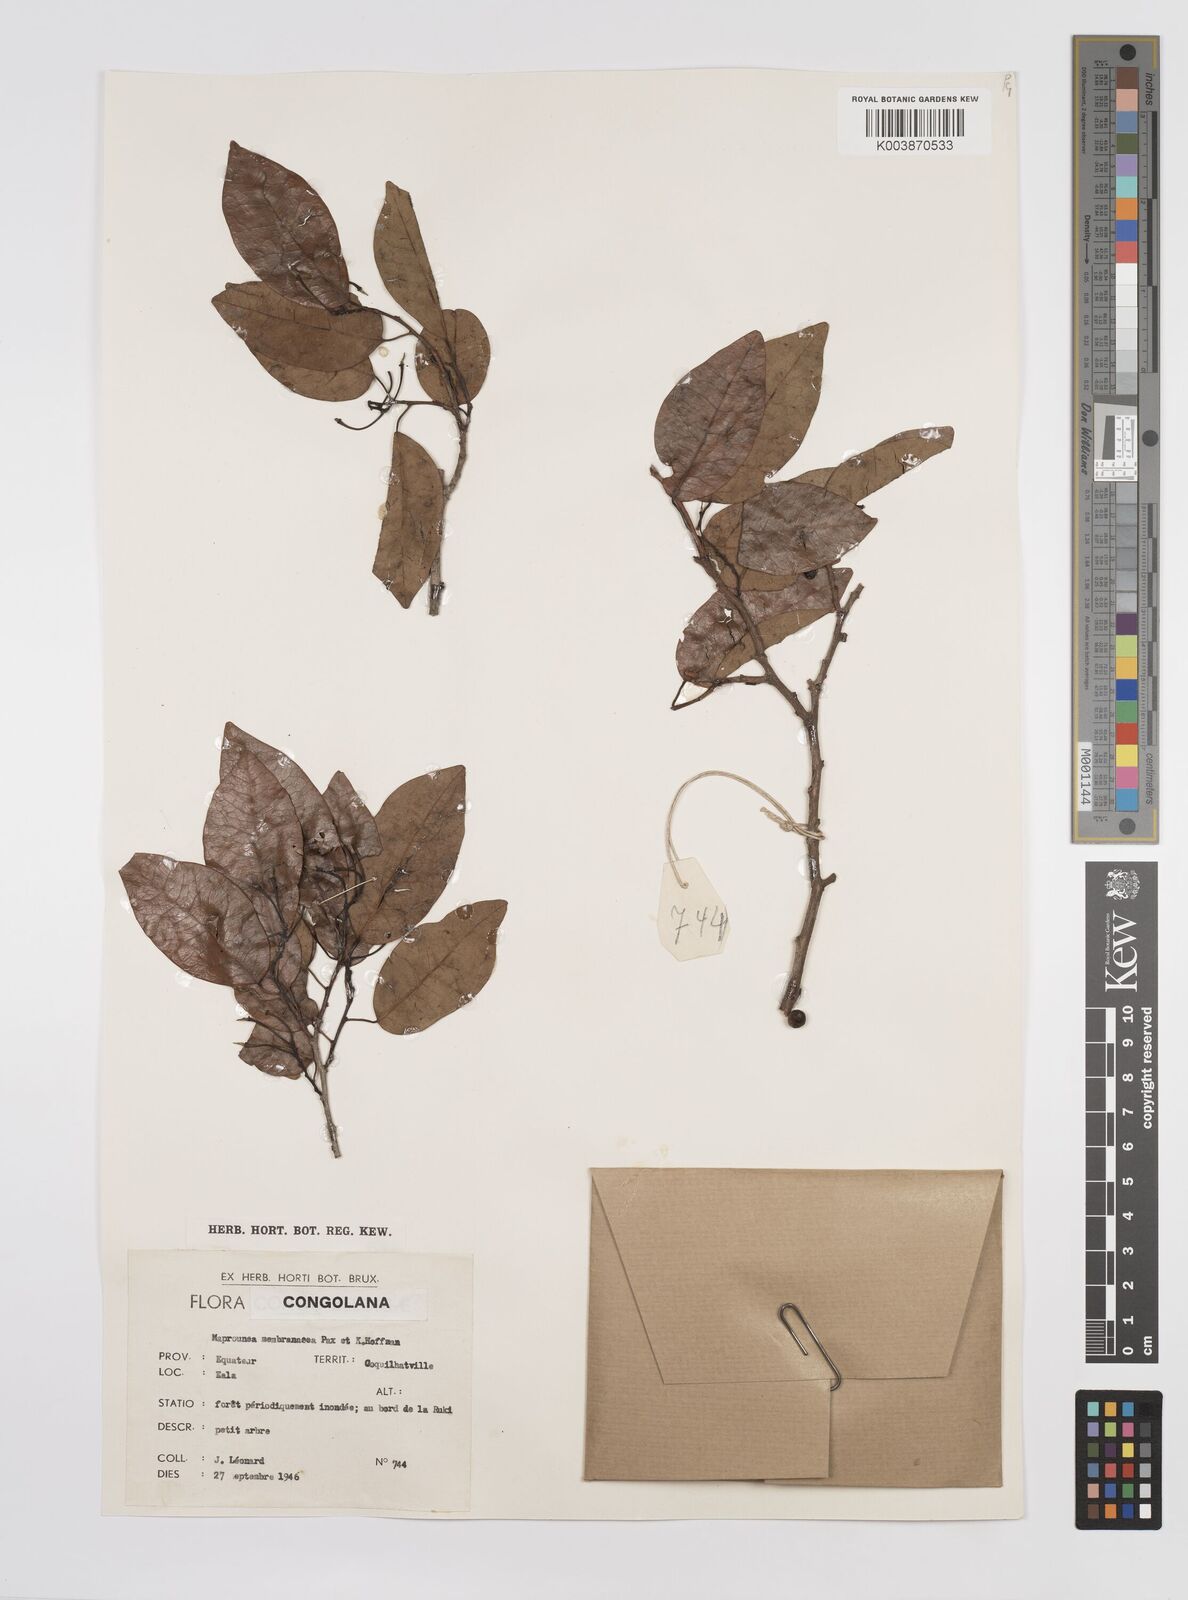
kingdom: Plantae
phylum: Tracheophyta
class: Magnoliopsida
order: Malpighiales
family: Euphorbiaceae
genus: Maprounea
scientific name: Maprounea membranacea
